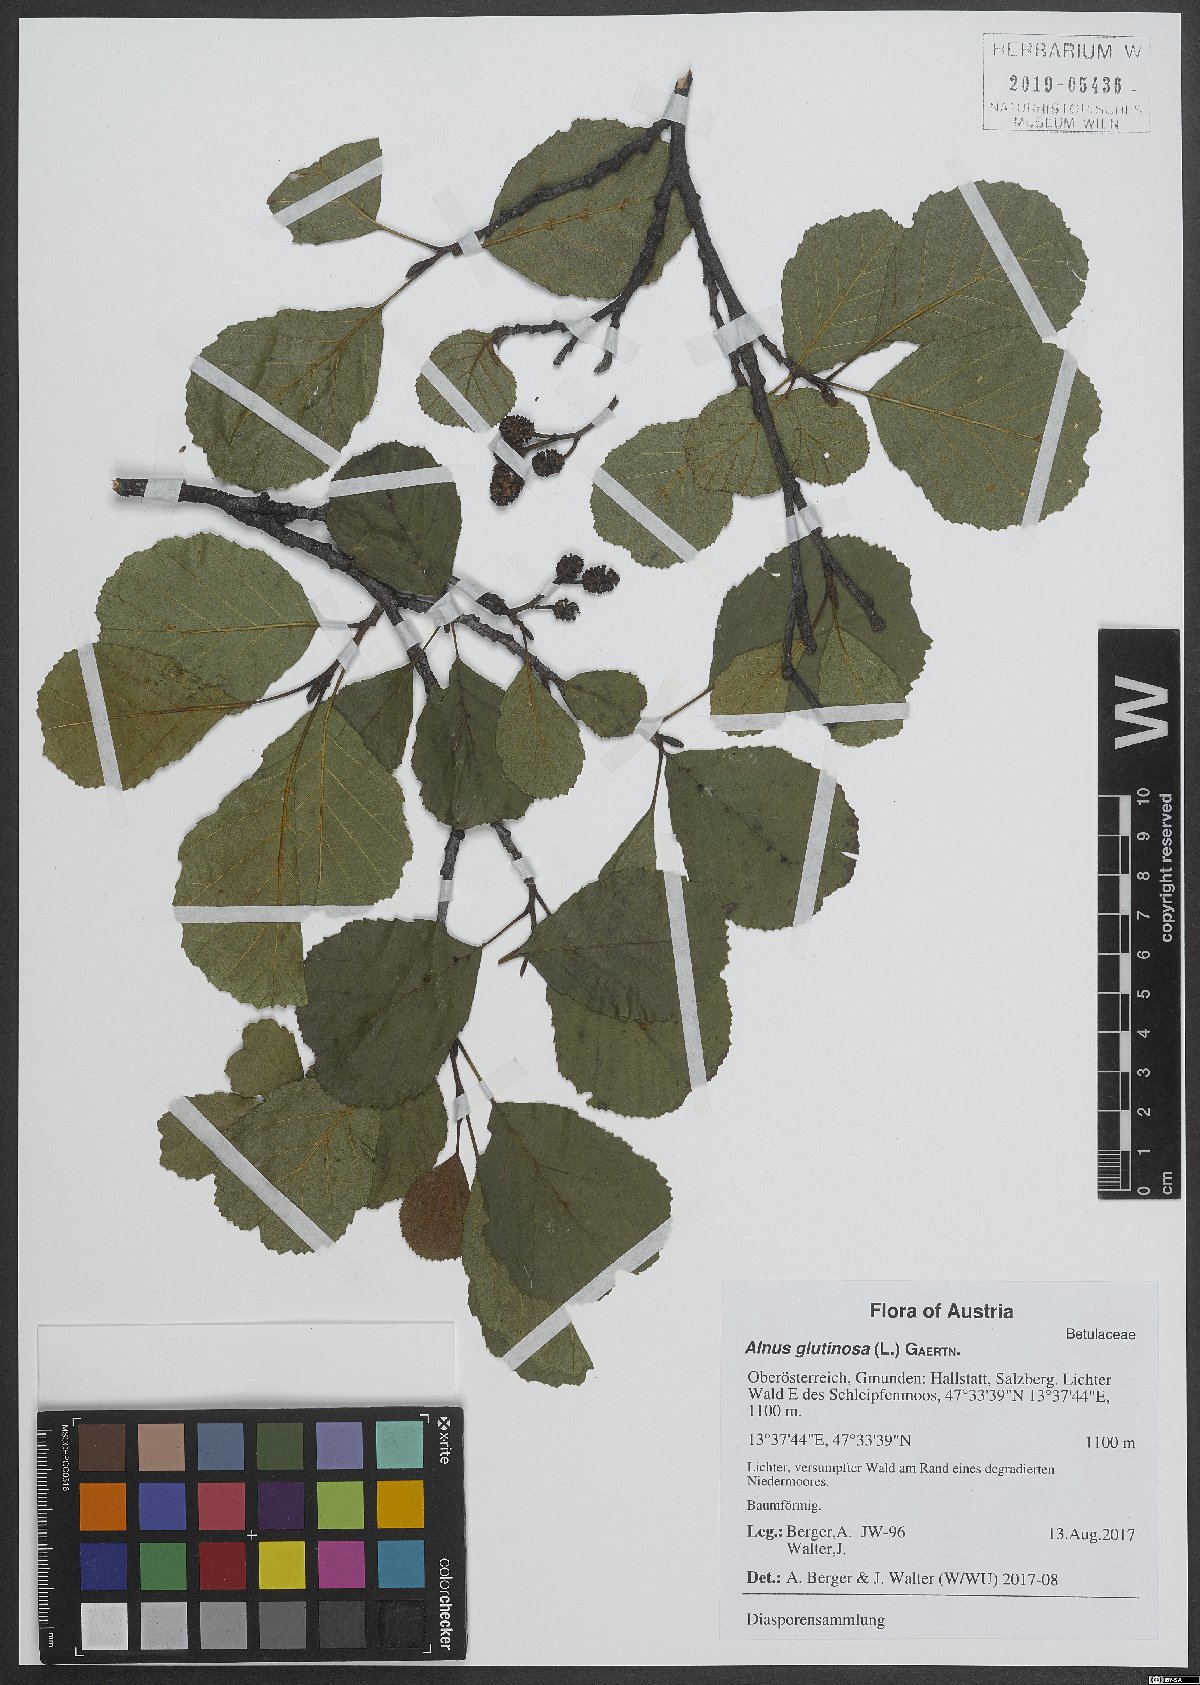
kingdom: Plantae
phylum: Tracheophyta
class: Magnoliopsida
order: Lamiales
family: Lamiaceae
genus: Galeopsis
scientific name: Galeopsis tetrahit
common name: Common hemp-nettle
